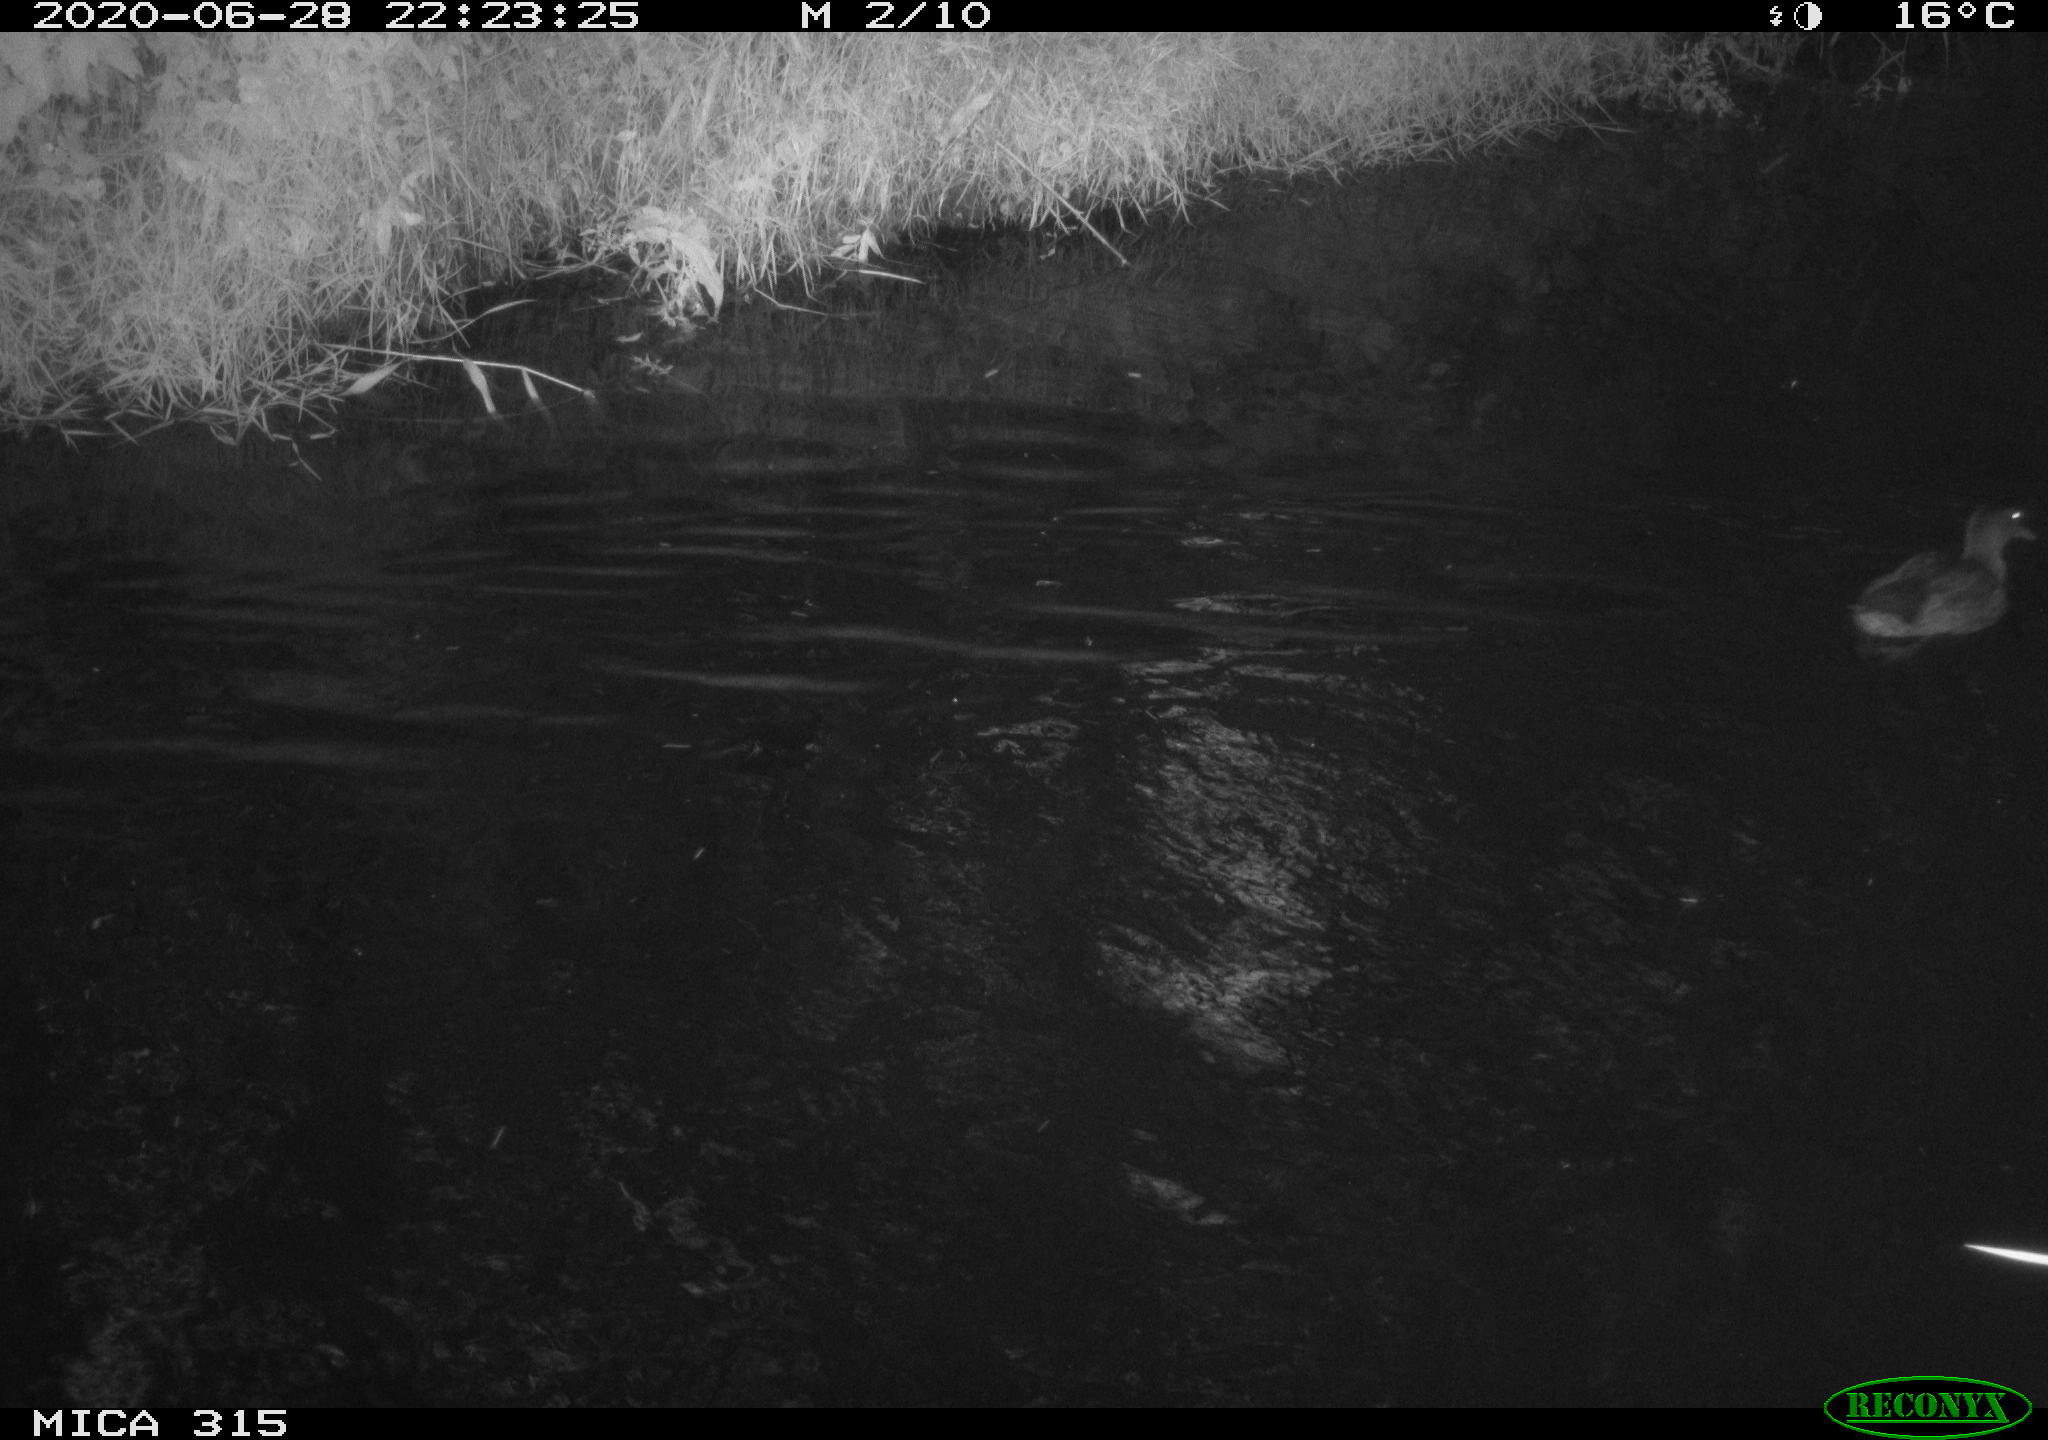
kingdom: Animalia
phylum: Chordata
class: Aves
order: Anseriformes
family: Anatidae
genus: Anas
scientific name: Anas platyrhynchos
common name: Mallard
